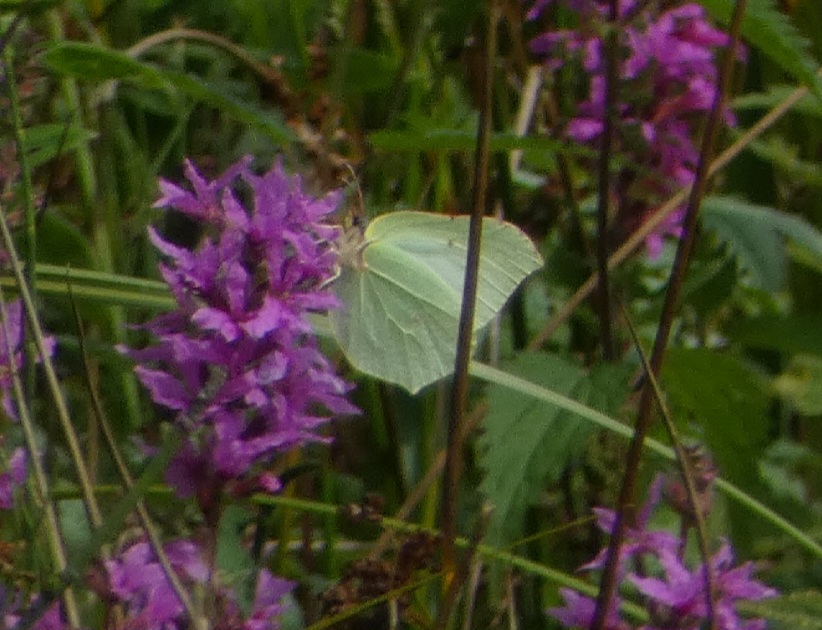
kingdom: Animalia
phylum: Arthropoda
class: Insecta
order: Lepidoptera
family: Pieridae
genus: Gonepteryx
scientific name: Gonepteryx rhamni
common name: Citronsommerfugl
